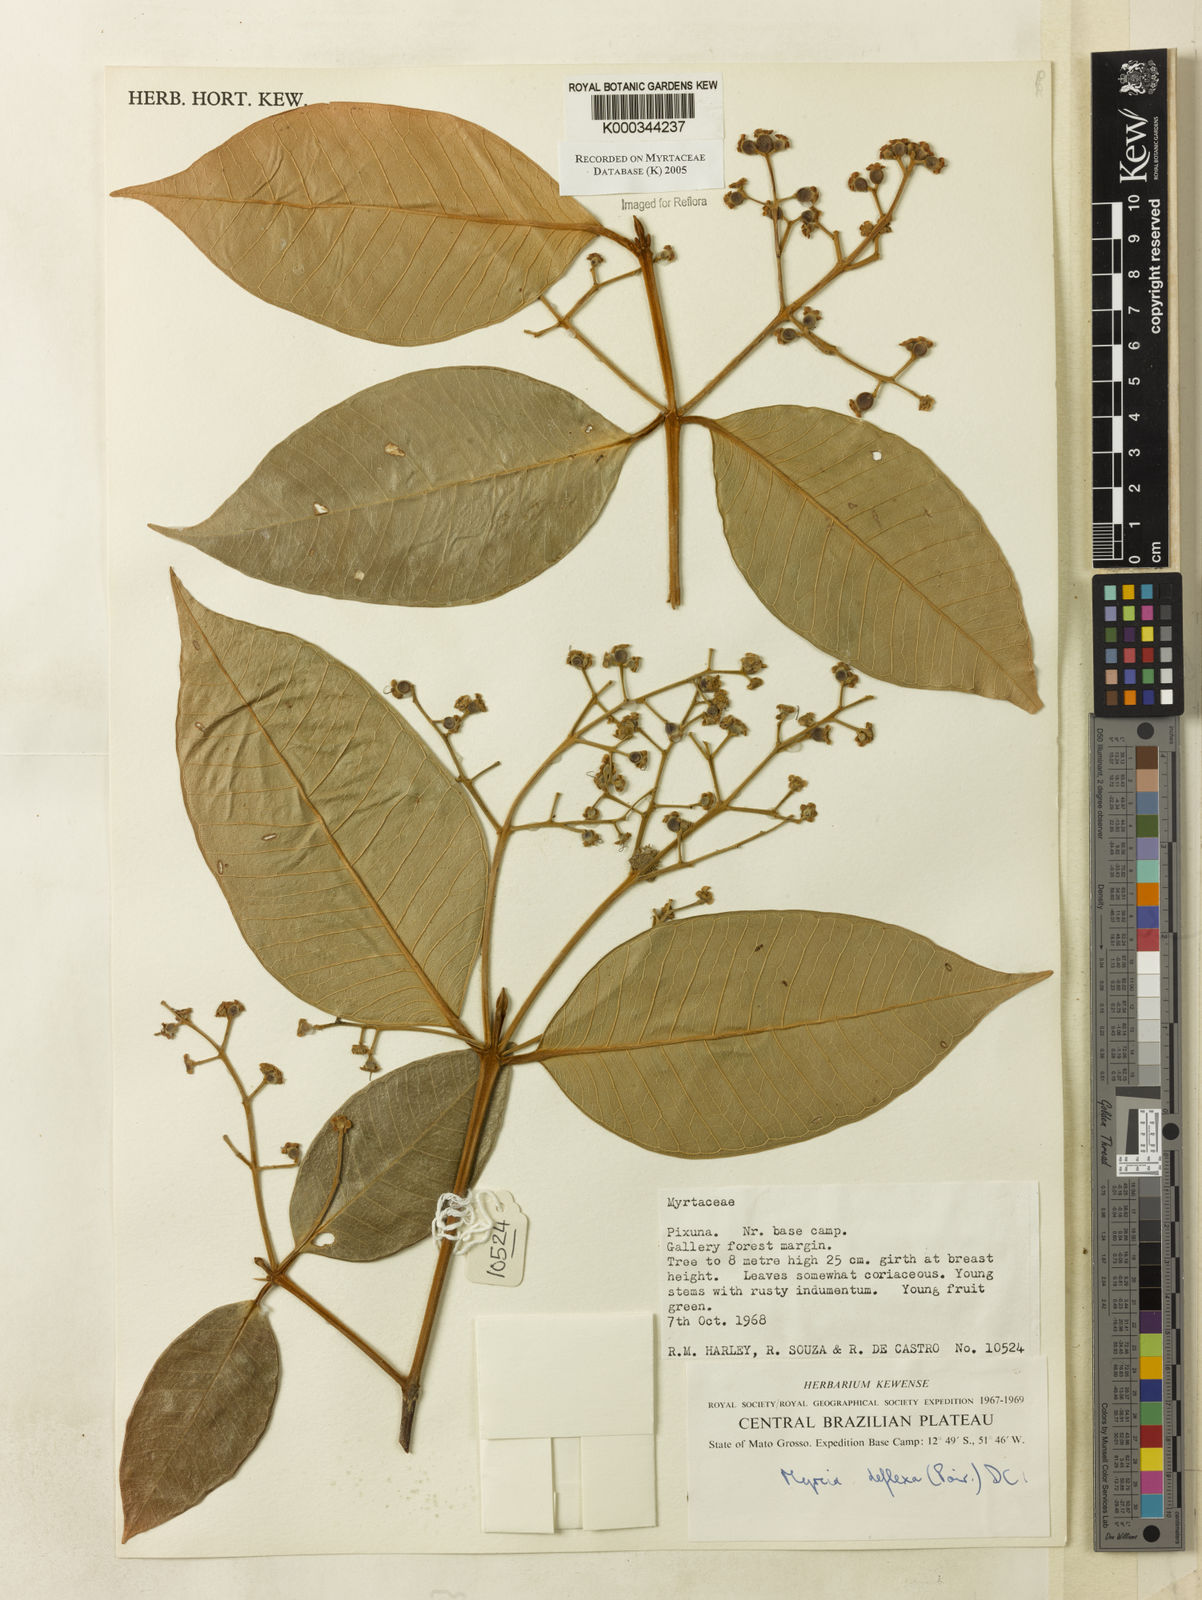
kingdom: Plantae
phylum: Tracheophyta
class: Magnoliopsida
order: Myrtales
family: Myrtaceae
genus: Myrcia
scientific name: Myrcia deflexa
